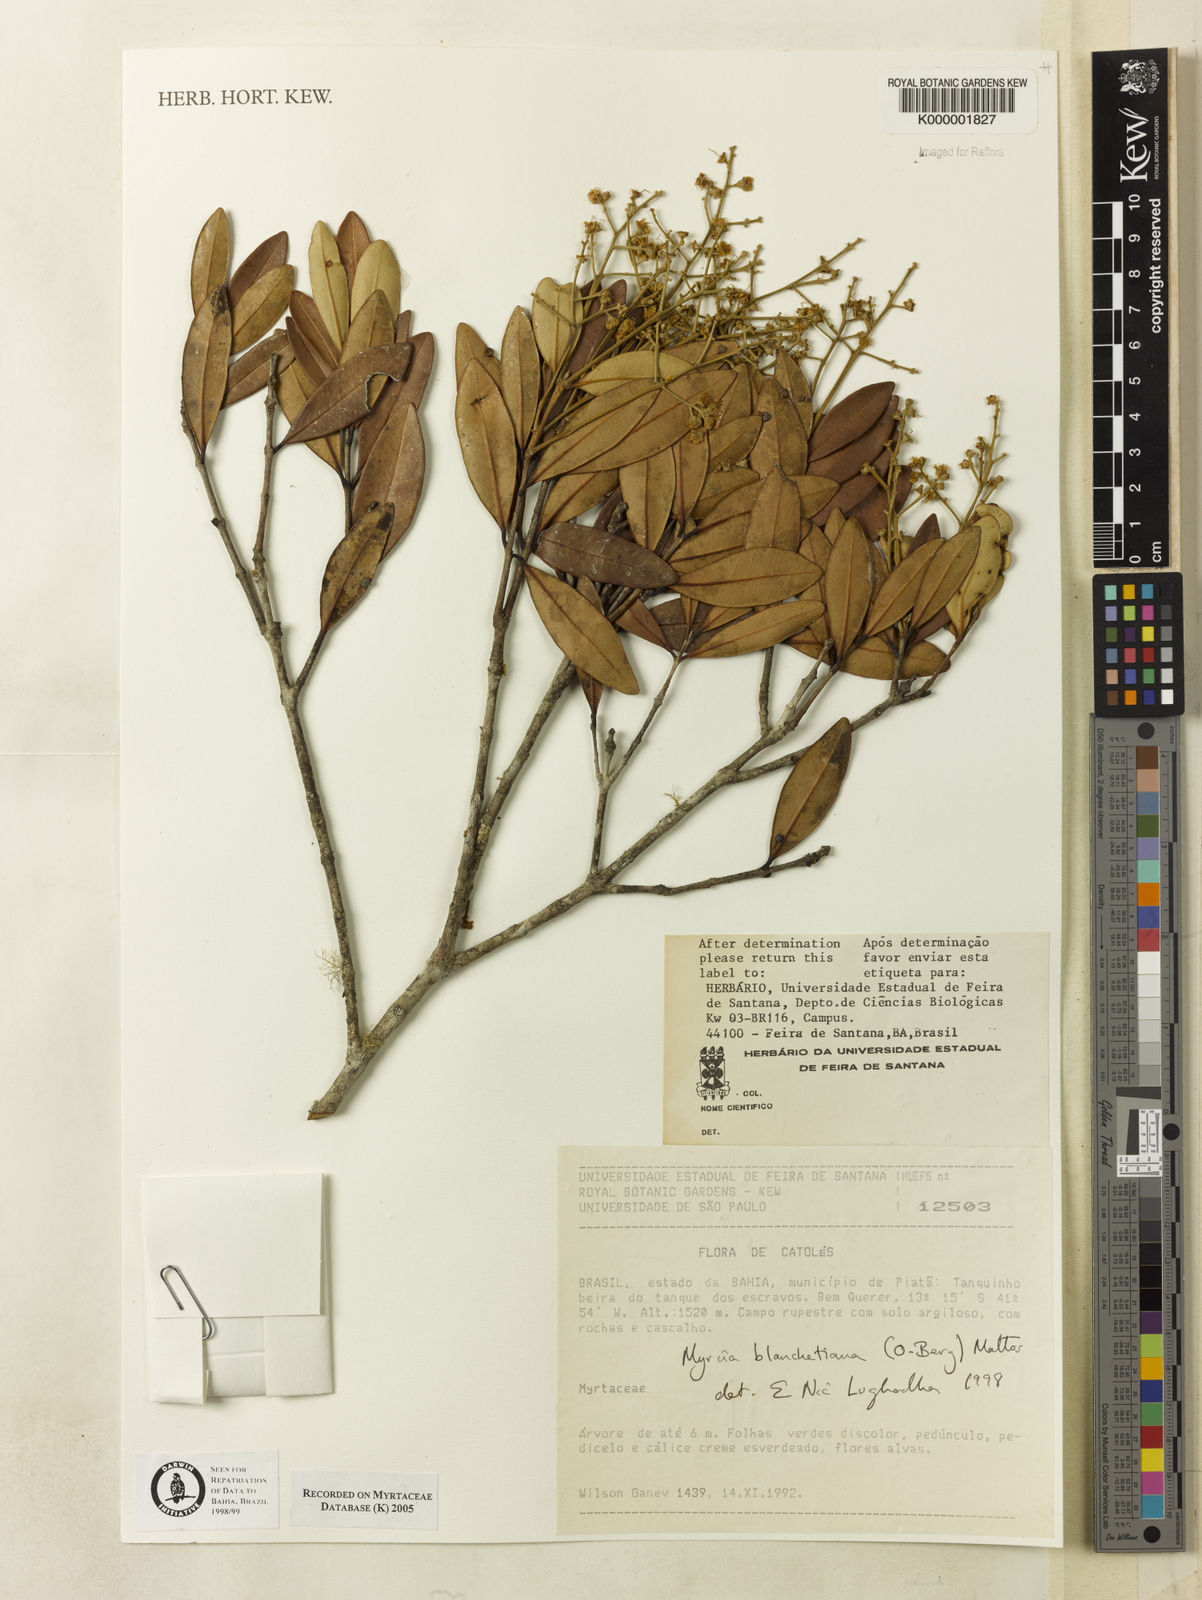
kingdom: Plantae
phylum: Tracheophyta
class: Magnoliopsida
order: Myrtales
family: Myrtaceae
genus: Myrcia
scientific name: Myrcia blanchetiana
